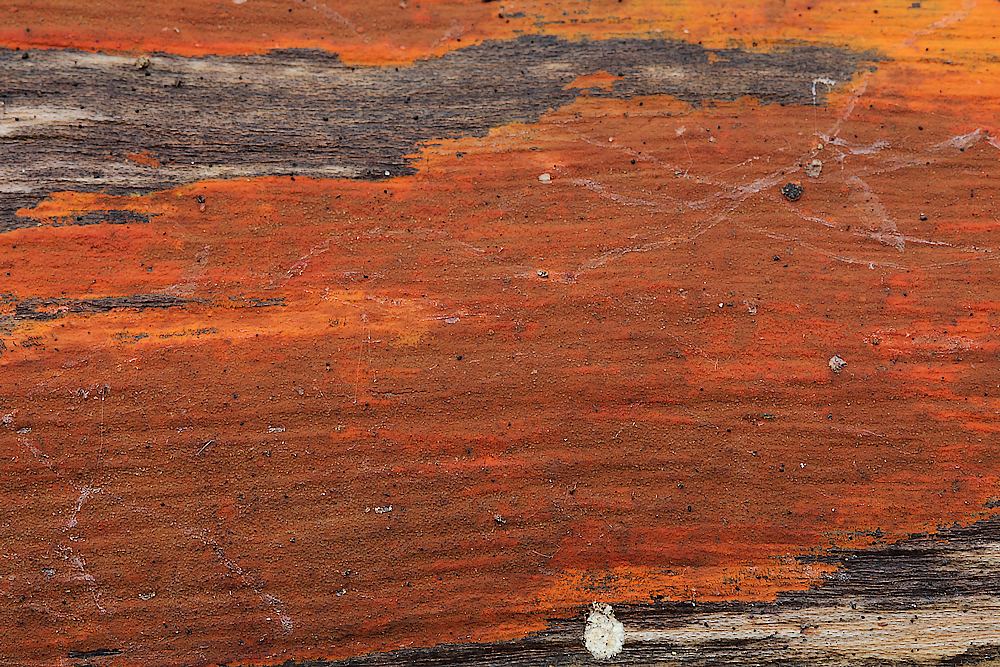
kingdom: Fungi
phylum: Ascomycota
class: Sordariomycetes
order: Xylariales
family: Hypoxylaceae
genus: Hypoxylon
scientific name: Hypoxylon
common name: kulbær
